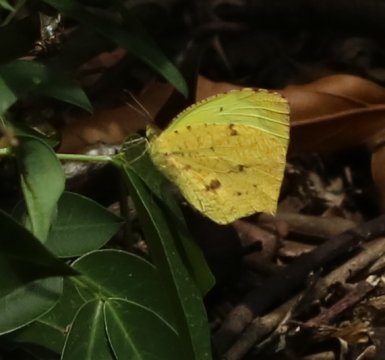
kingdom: Animalia
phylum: Arthropoda
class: Insecta
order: Lepidoptera
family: Pieridae
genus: Eurema
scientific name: Eurema salome
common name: Salome Yellow
